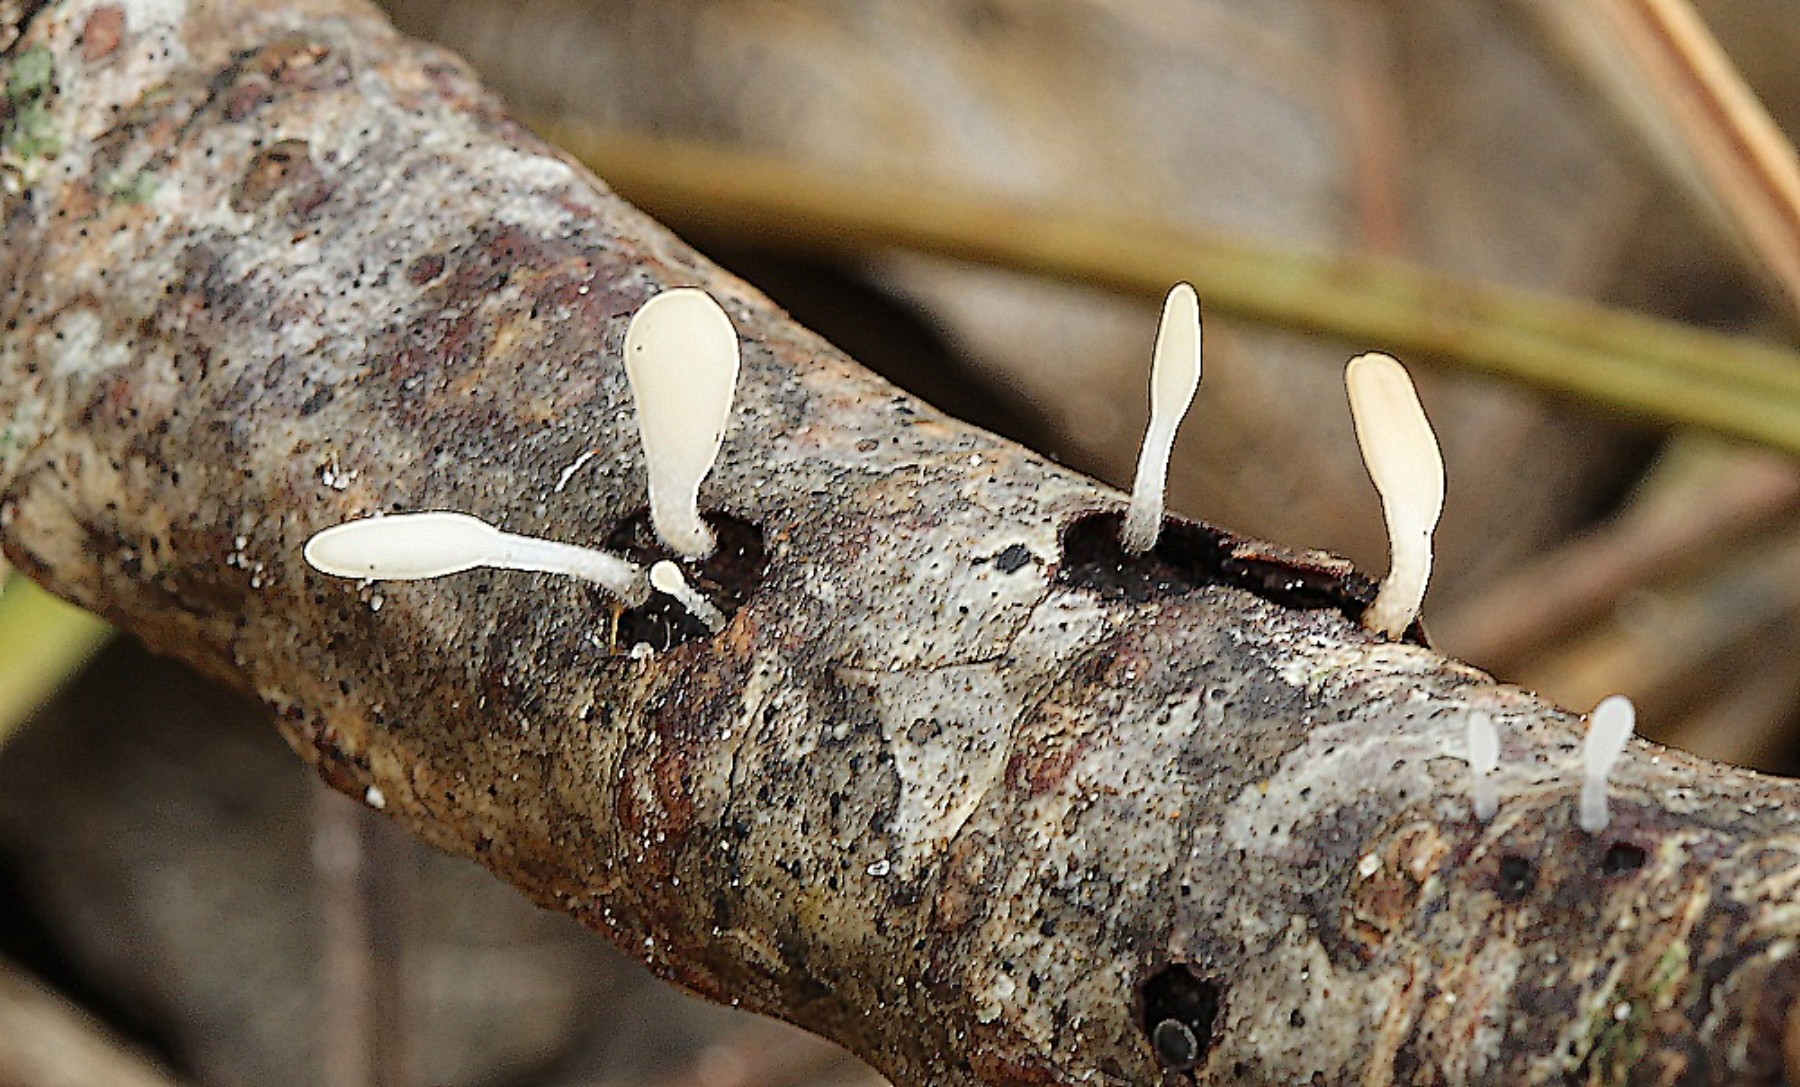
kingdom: Fungi
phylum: Basidiomycota
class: Agaricomycetes
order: Agaricales
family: Typhulaceae
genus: Typhula
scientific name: Typhula spathulata
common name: aske-trådkølle
